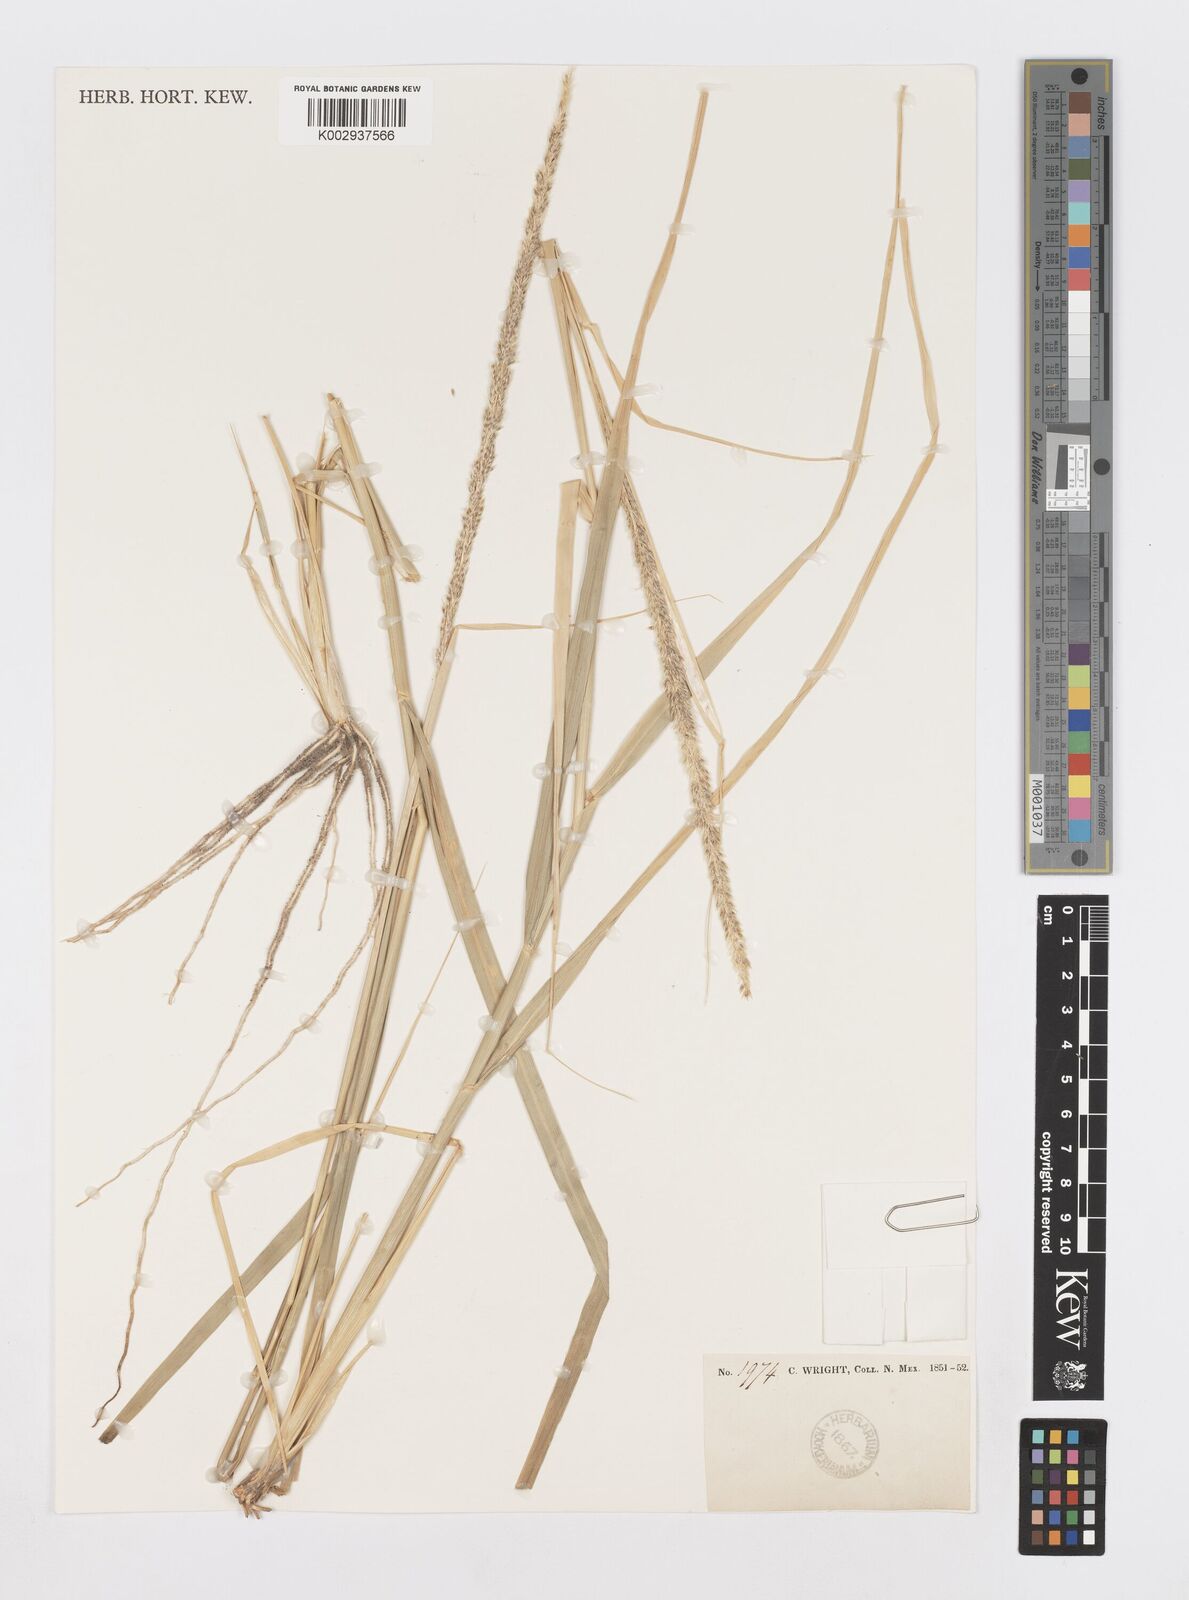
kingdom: Plantae
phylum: Tracheophyta
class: Liliopsida
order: Poales
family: Poaceae
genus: Sporobolus
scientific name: Sporobolus
